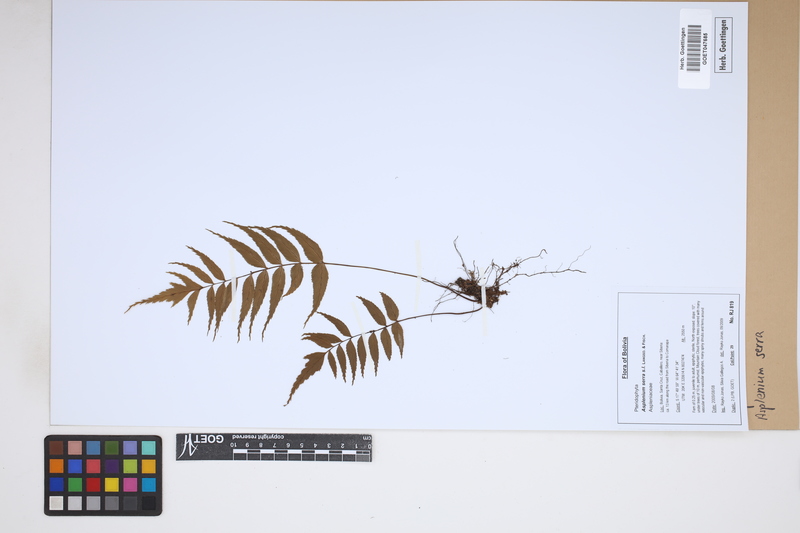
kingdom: Plantae
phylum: Tracheophyta
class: Polypodiopsida
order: Polypodiales
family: Aspleniaceae
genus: Asplenium
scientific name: Asplenium serra
